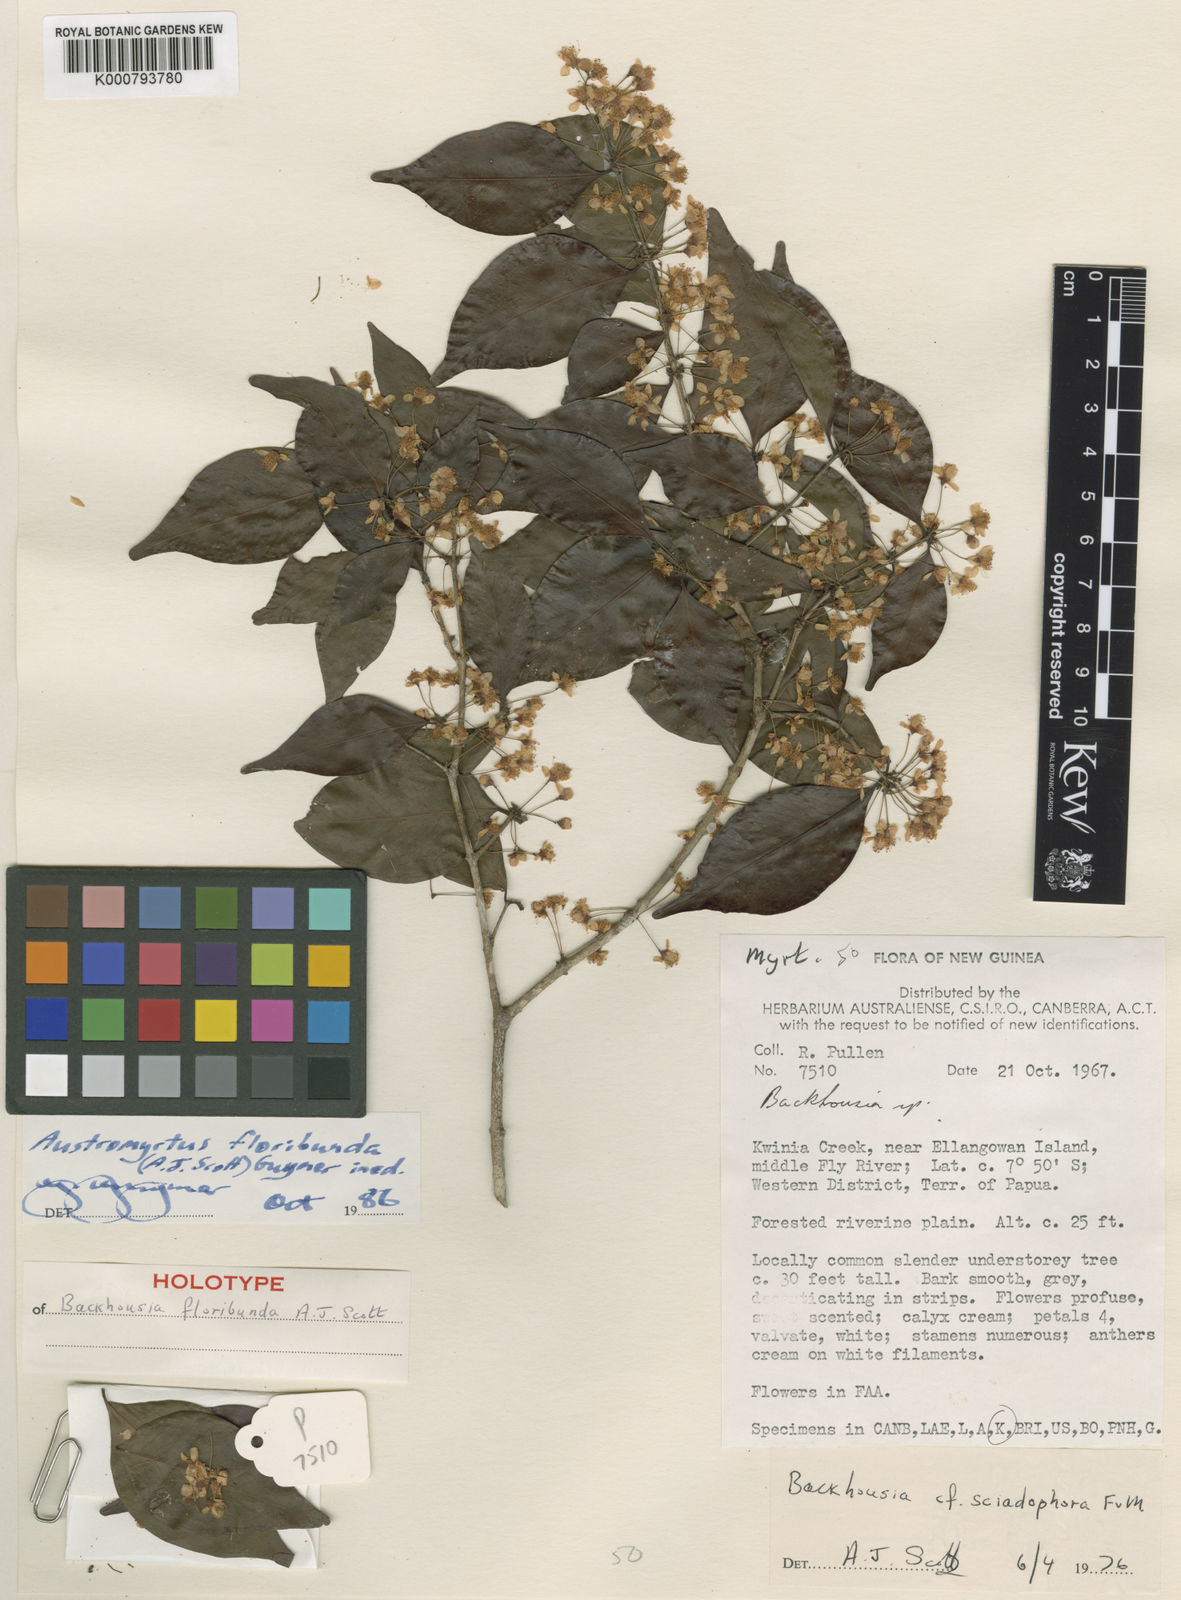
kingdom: Plantae
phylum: Tracheophyta
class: Magnoliopsida
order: Myrtales
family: Myrtaceae
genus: Gossia
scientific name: Gossia floribunda
